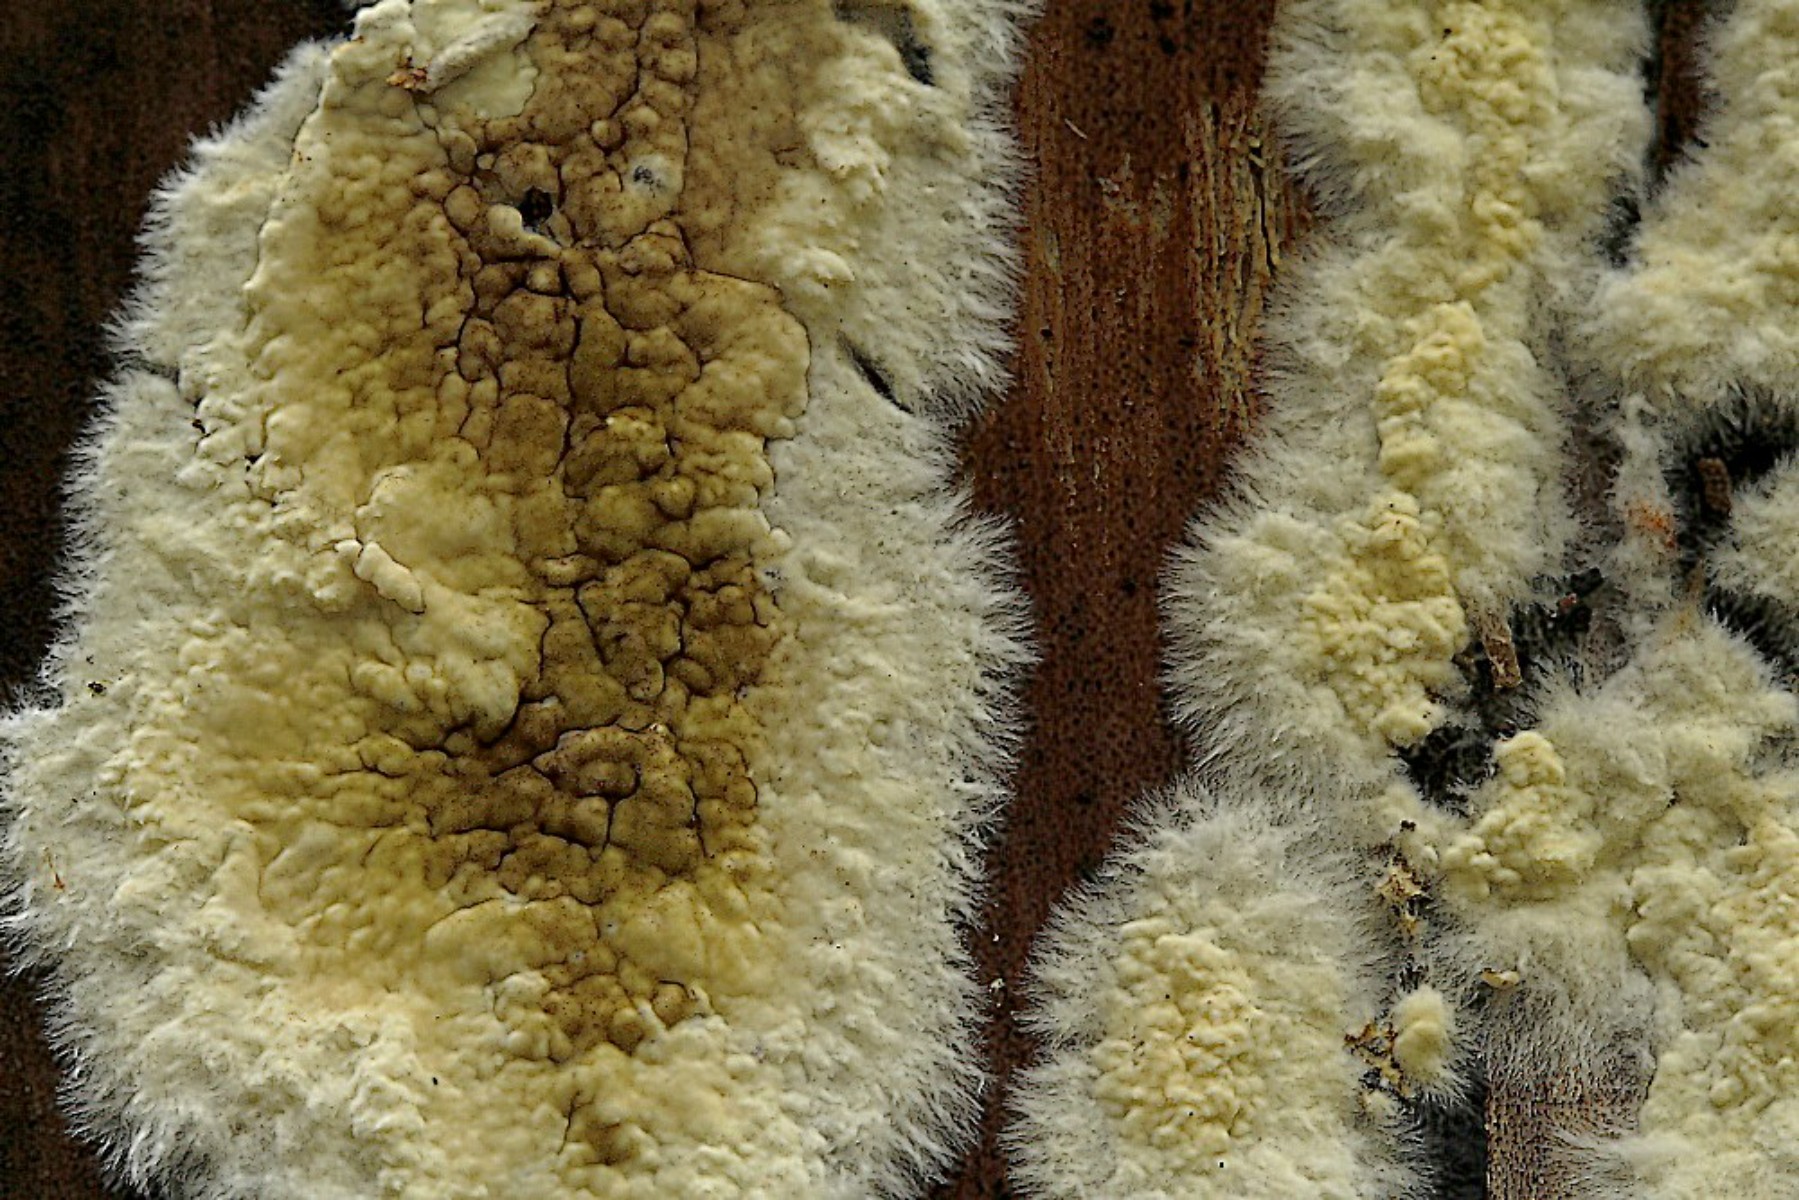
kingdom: Fungi
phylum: Basidiomycota
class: Agaricomycetes
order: Boletales
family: Coniophoraceae
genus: Coniophora
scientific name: Coniophora puteana
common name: gul tømmersvamp
